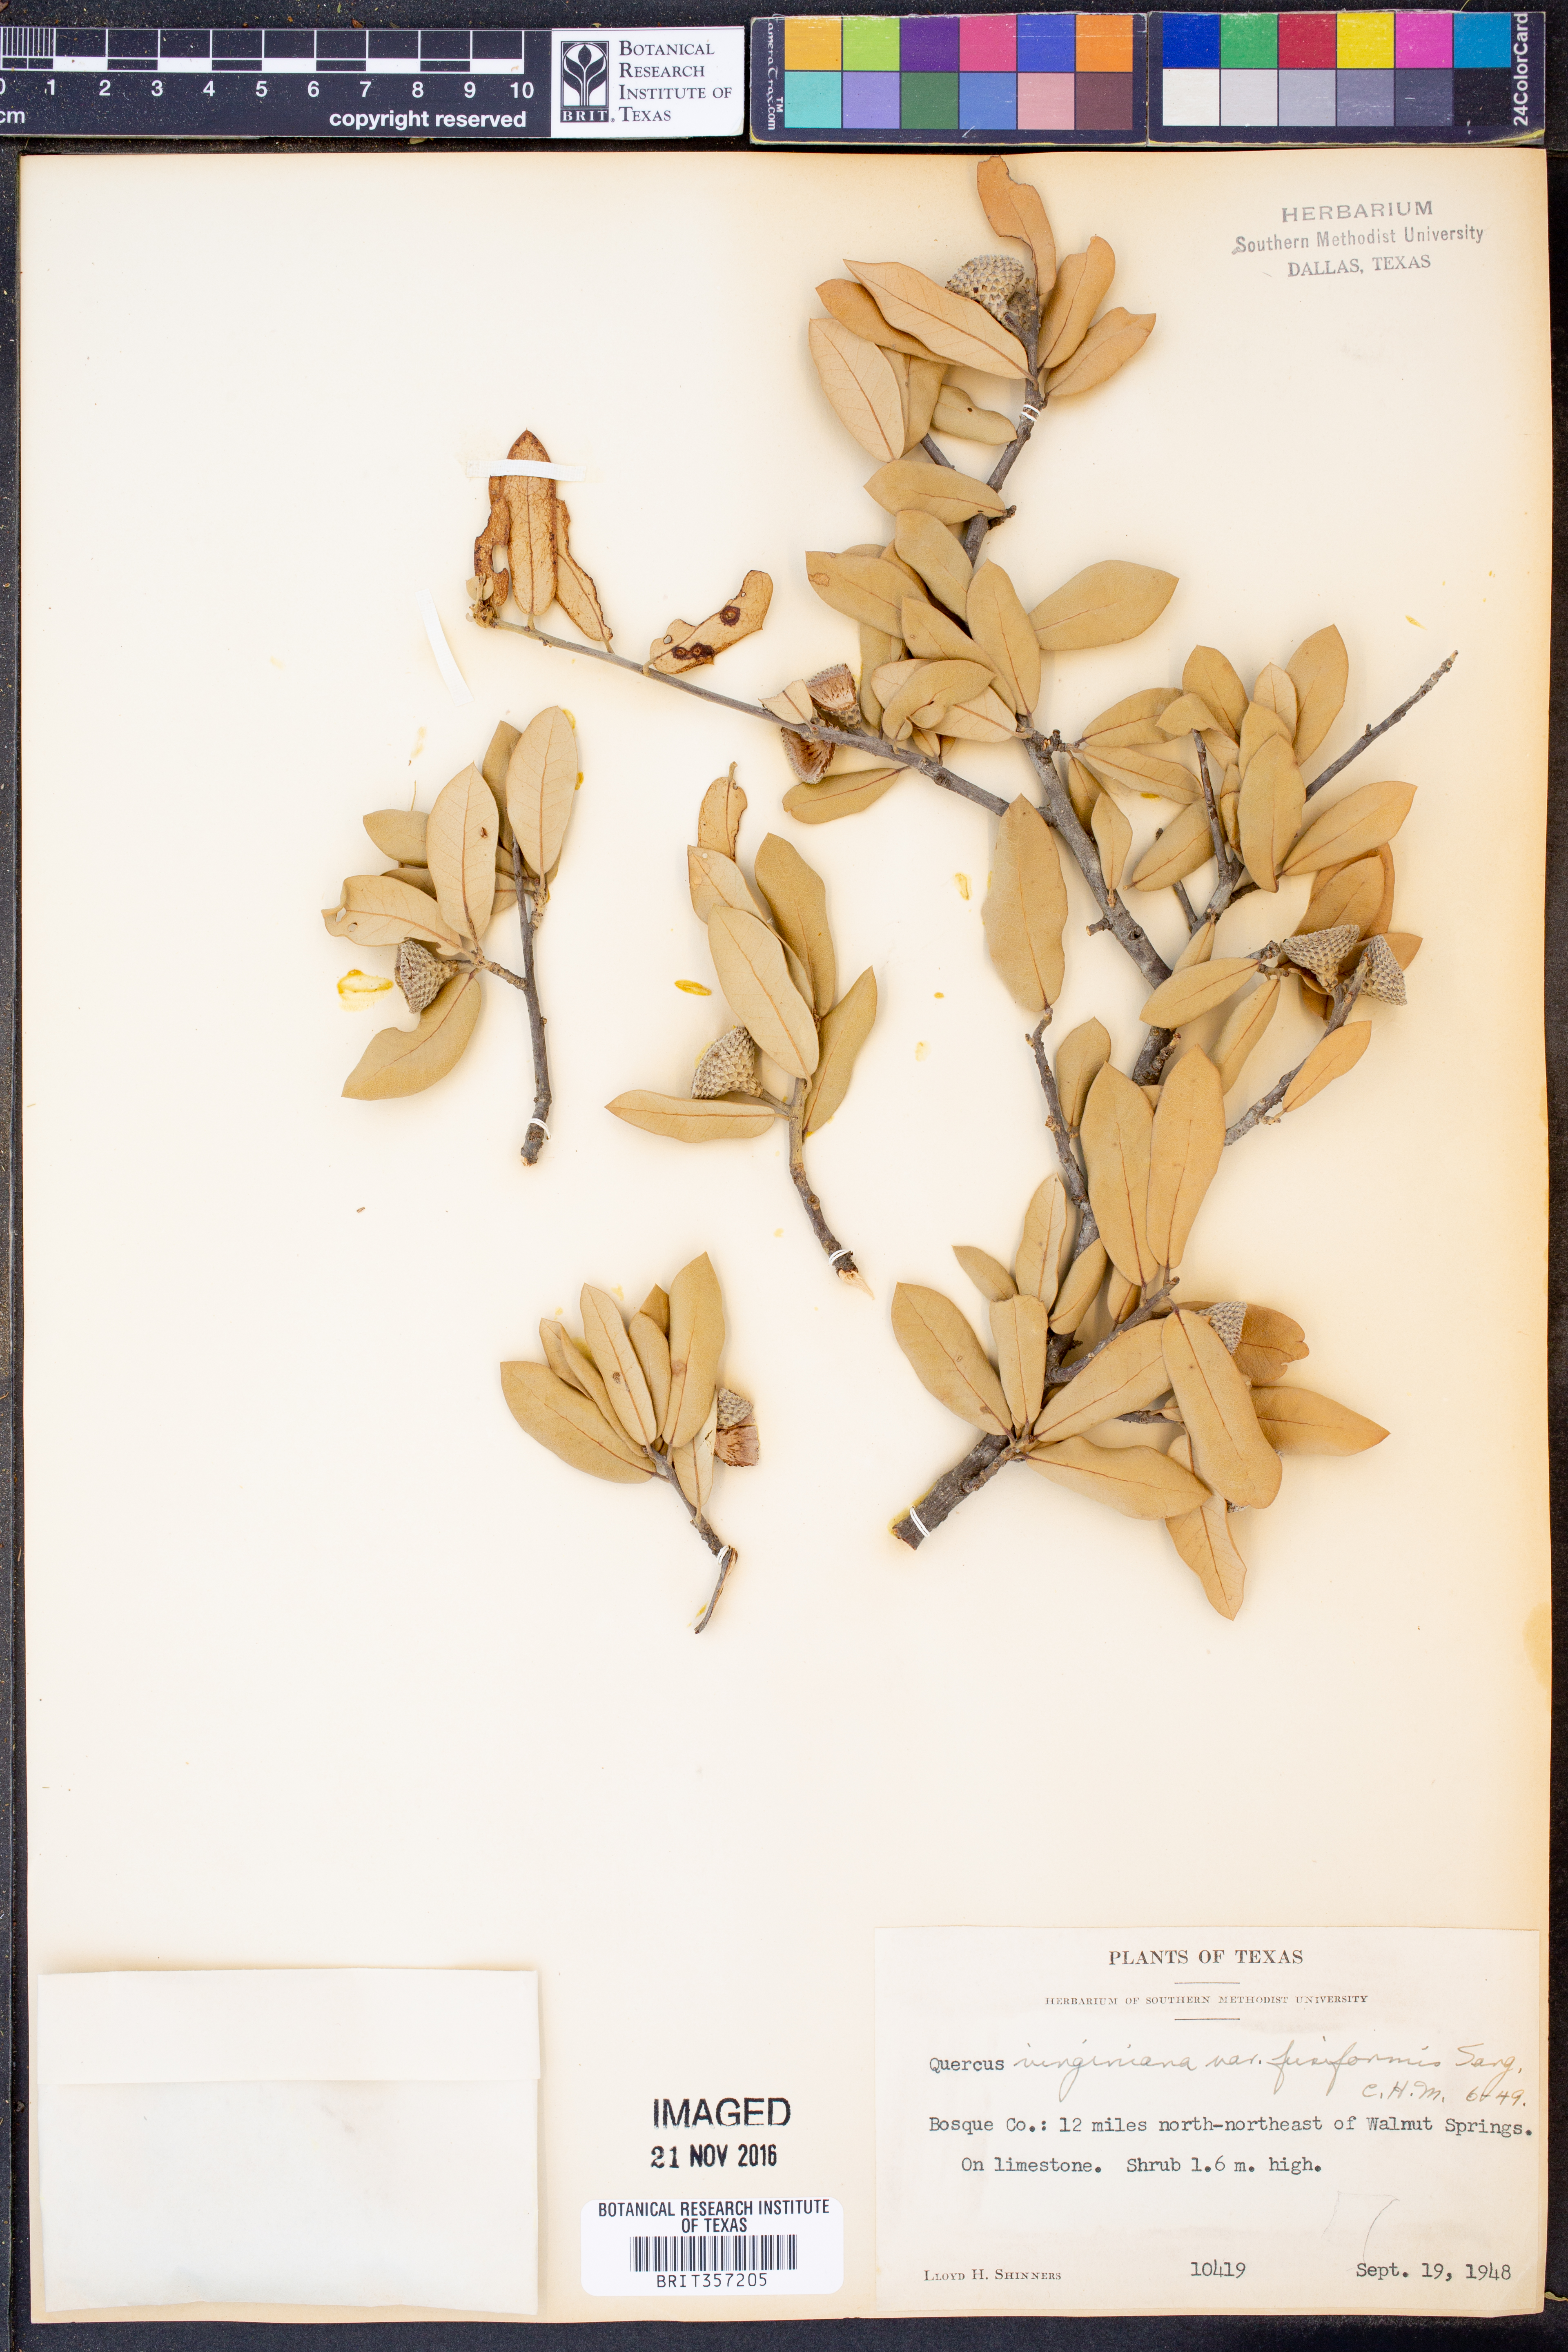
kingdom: Plantae
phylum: Tracheophyta
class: Magnoliopsida
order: Fagales
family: Fagaceae
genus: Quercus
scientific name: Quercus fusiformis
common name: Texas live oak
